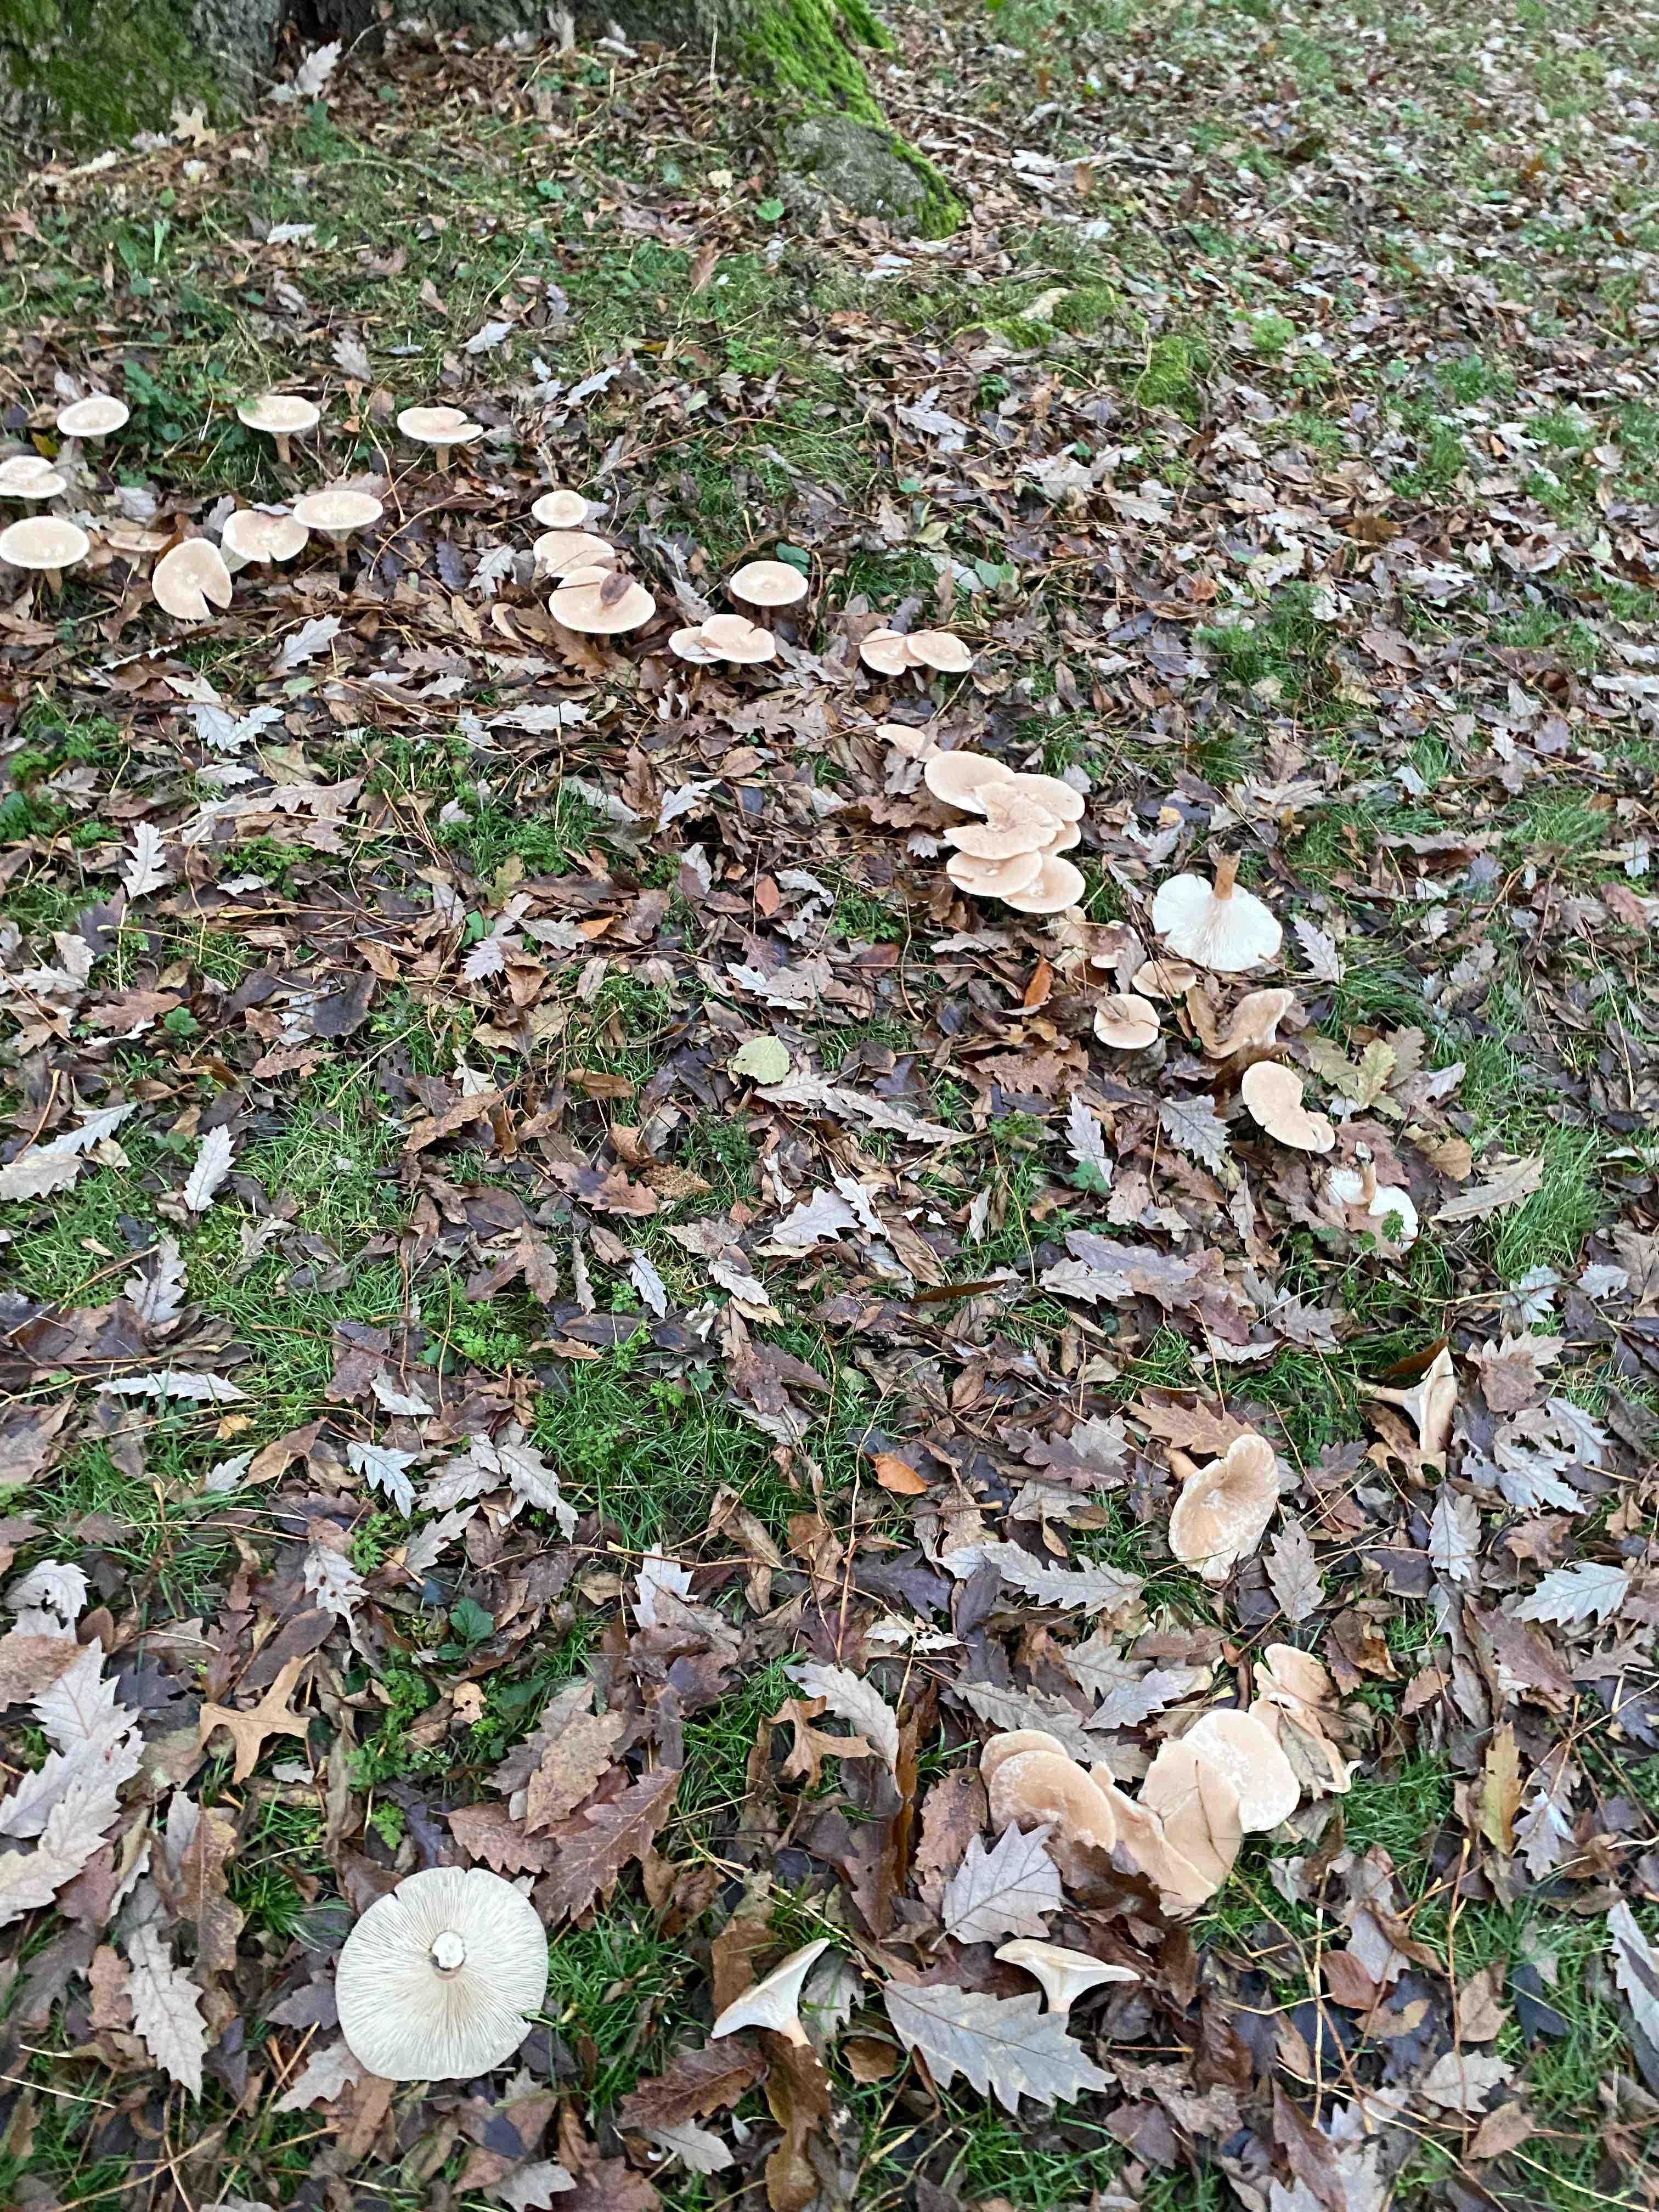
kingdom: Fungi
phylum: Basidiomycota
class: Agaricomycetes
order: Agaricales
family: Tricholomataceae
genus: Infundibulicybe
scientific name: Infundibulicybe geotropa
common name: stor tragthat
